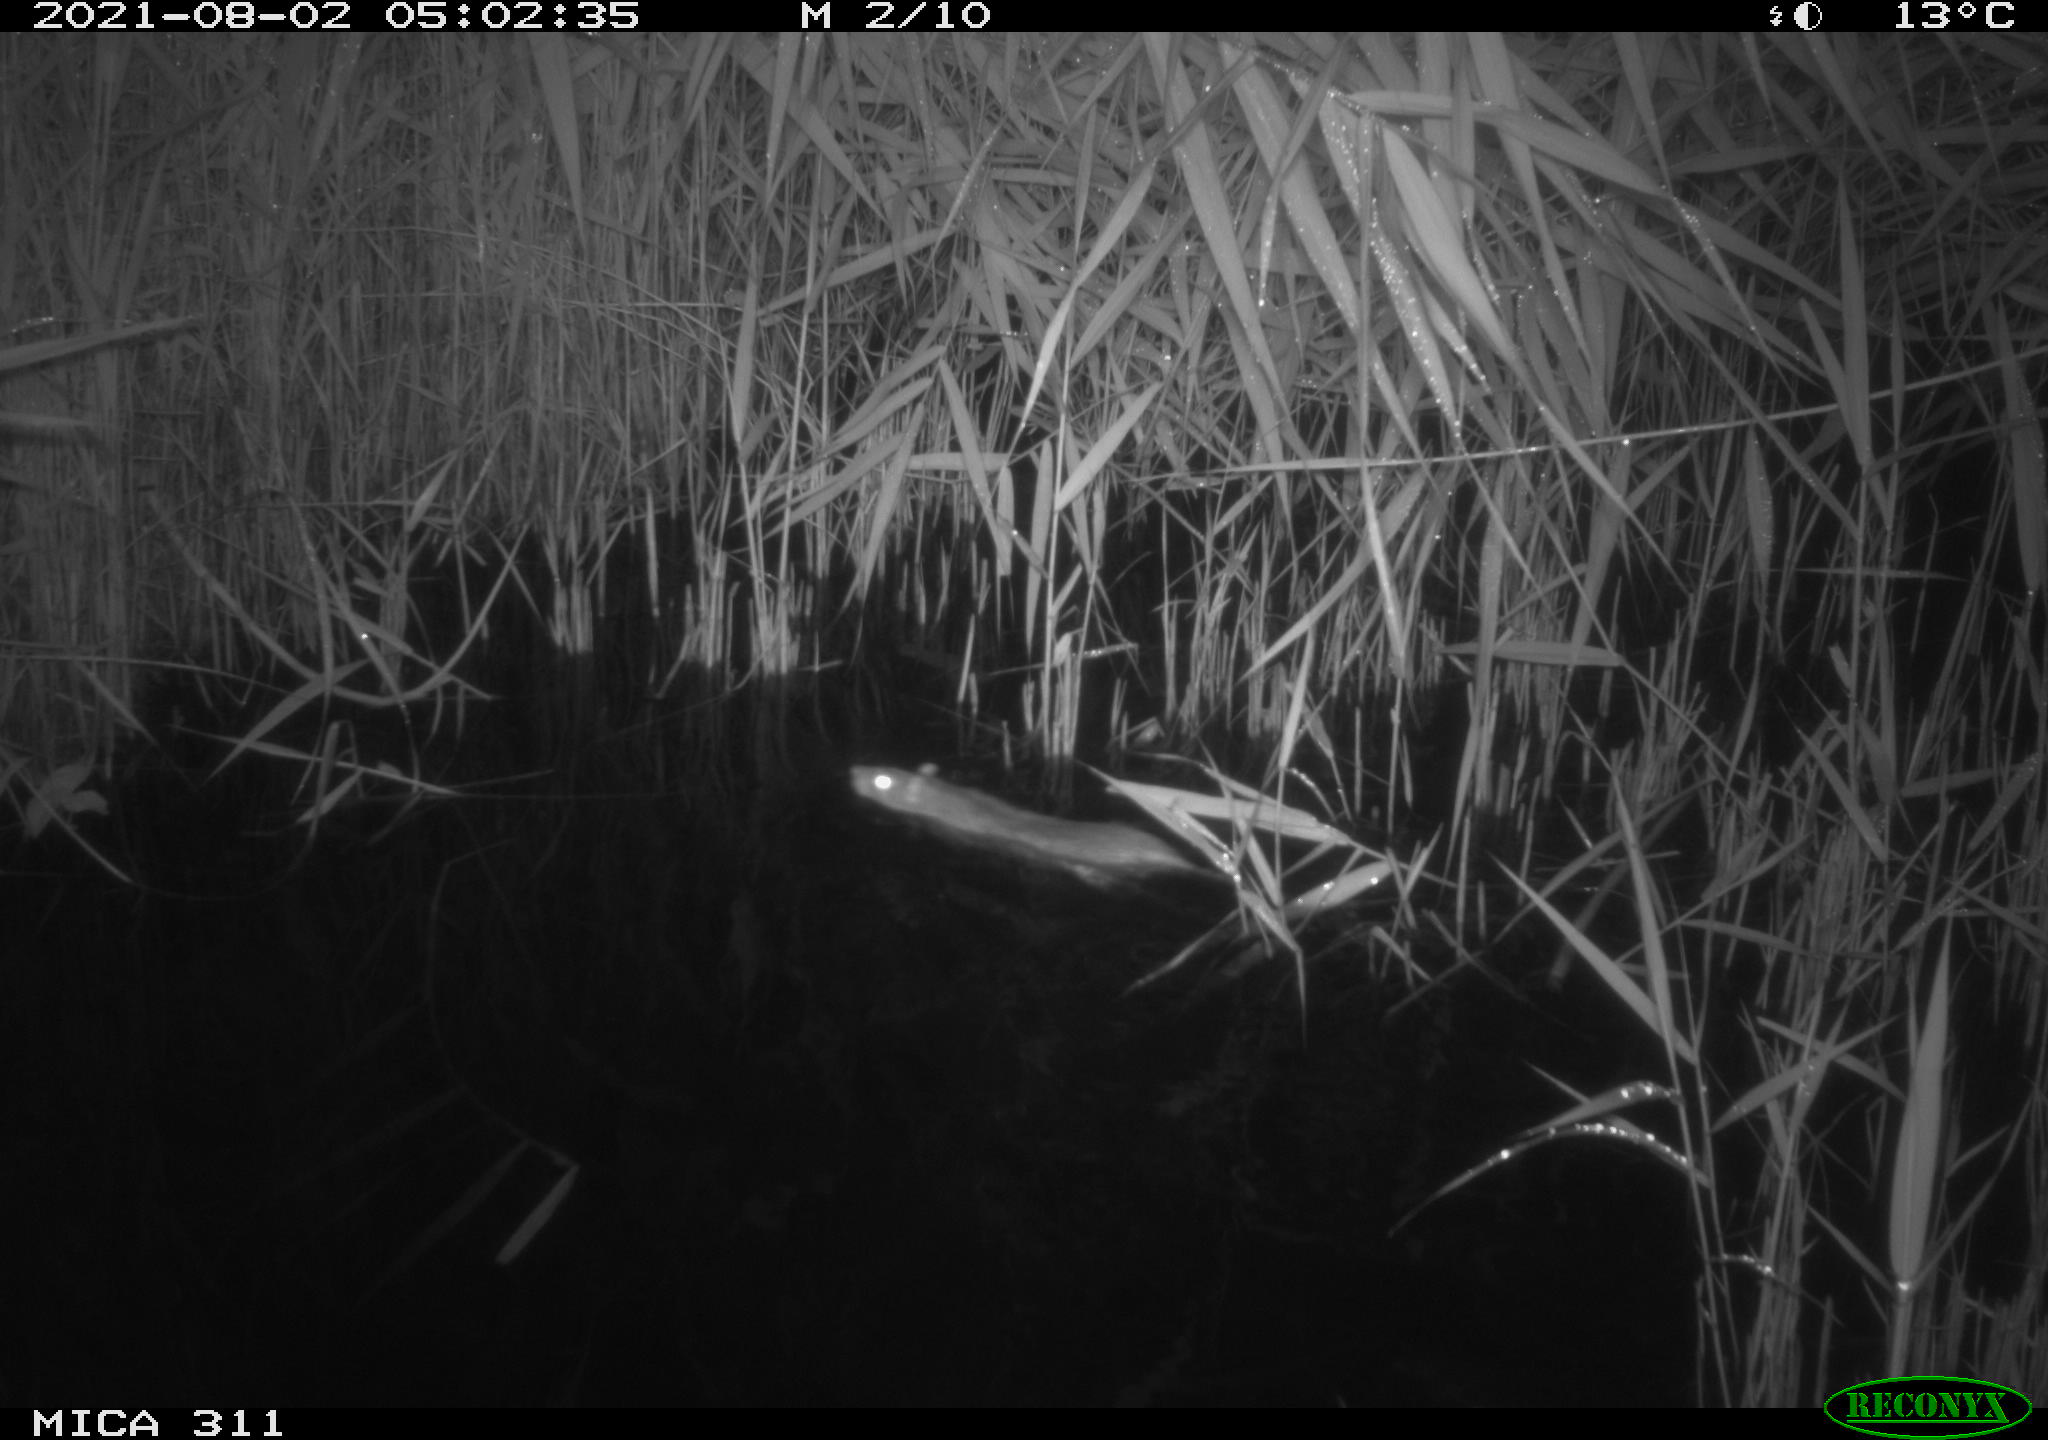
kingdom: Animalia
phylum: Chordata
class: Mammalia
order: Rodentia
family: Muridae
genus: Rattus
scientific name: Rattus norvegicus
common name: Brown rat
